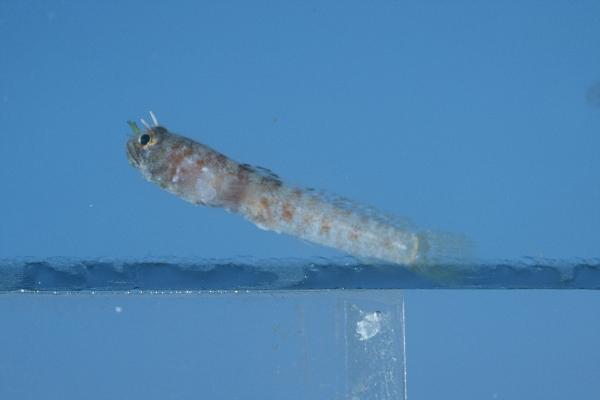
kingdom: Animalia
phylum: Chordata
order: Perciformes
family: Gobiidae
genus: Hetereleotris
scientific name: Hetereleotris tentaculata
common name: Locusthead
